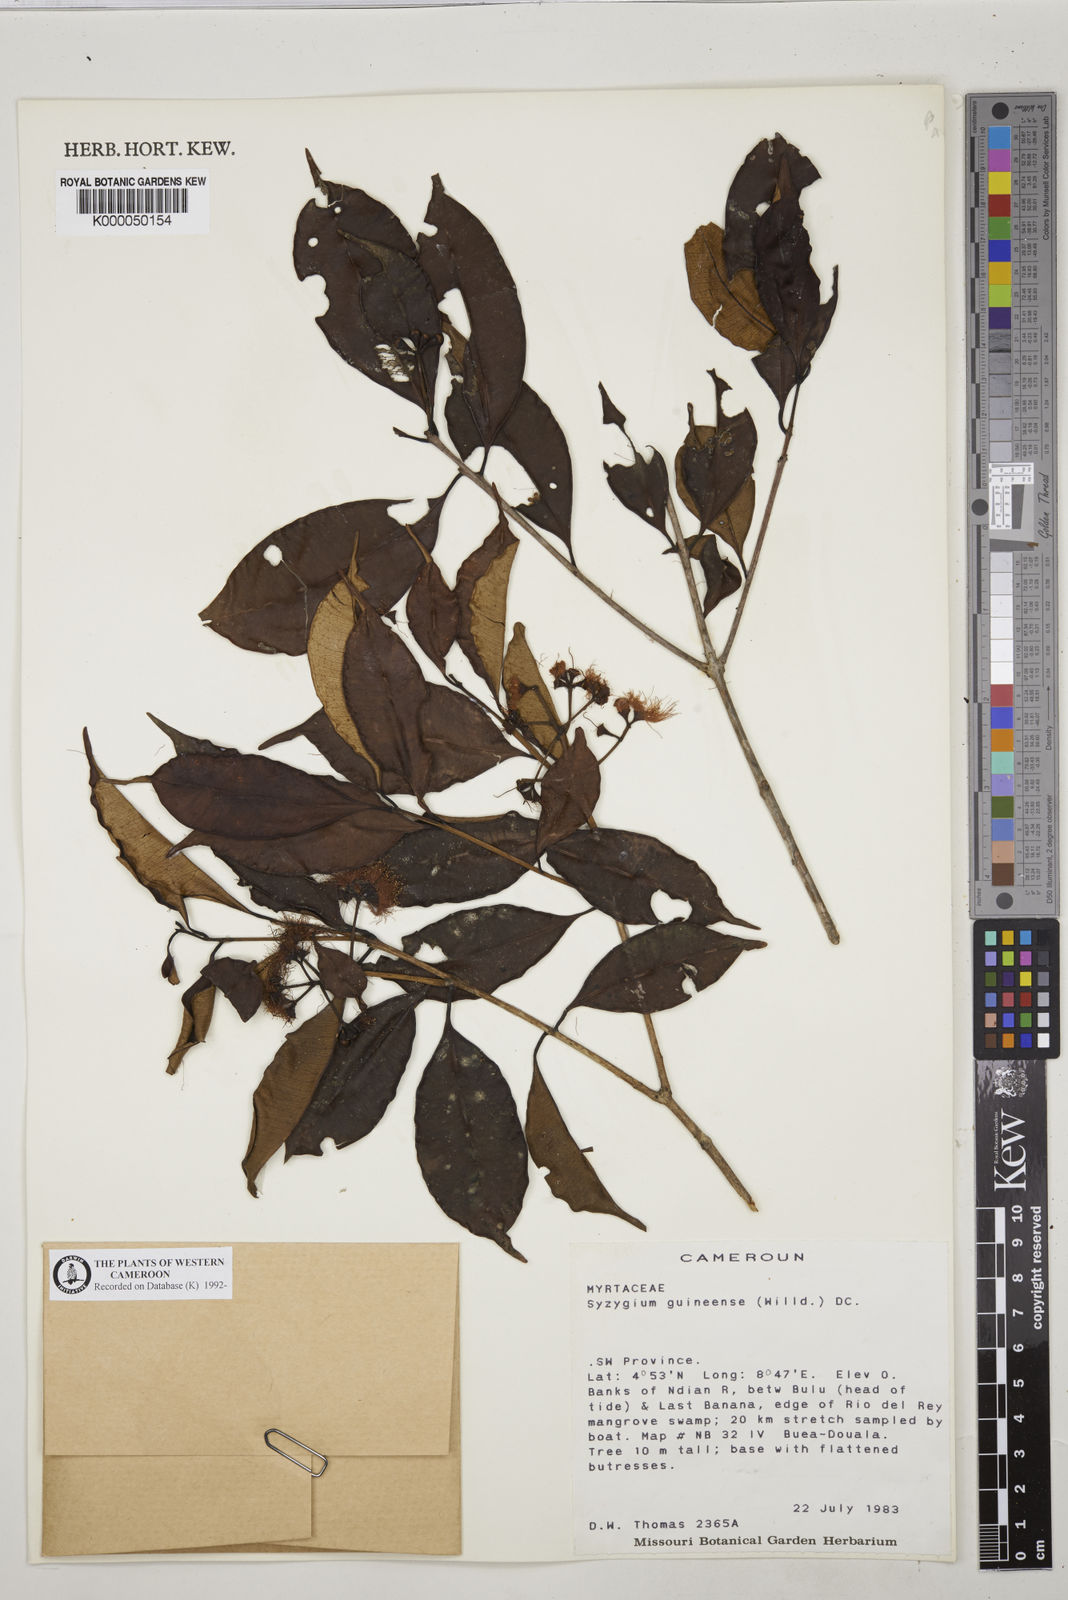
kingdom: Plantae
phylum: Tracheophyta
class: Magnoliopsida
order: Myrtales
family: Myrtaceae
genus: Syzygium
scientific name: Syzygium owariense
